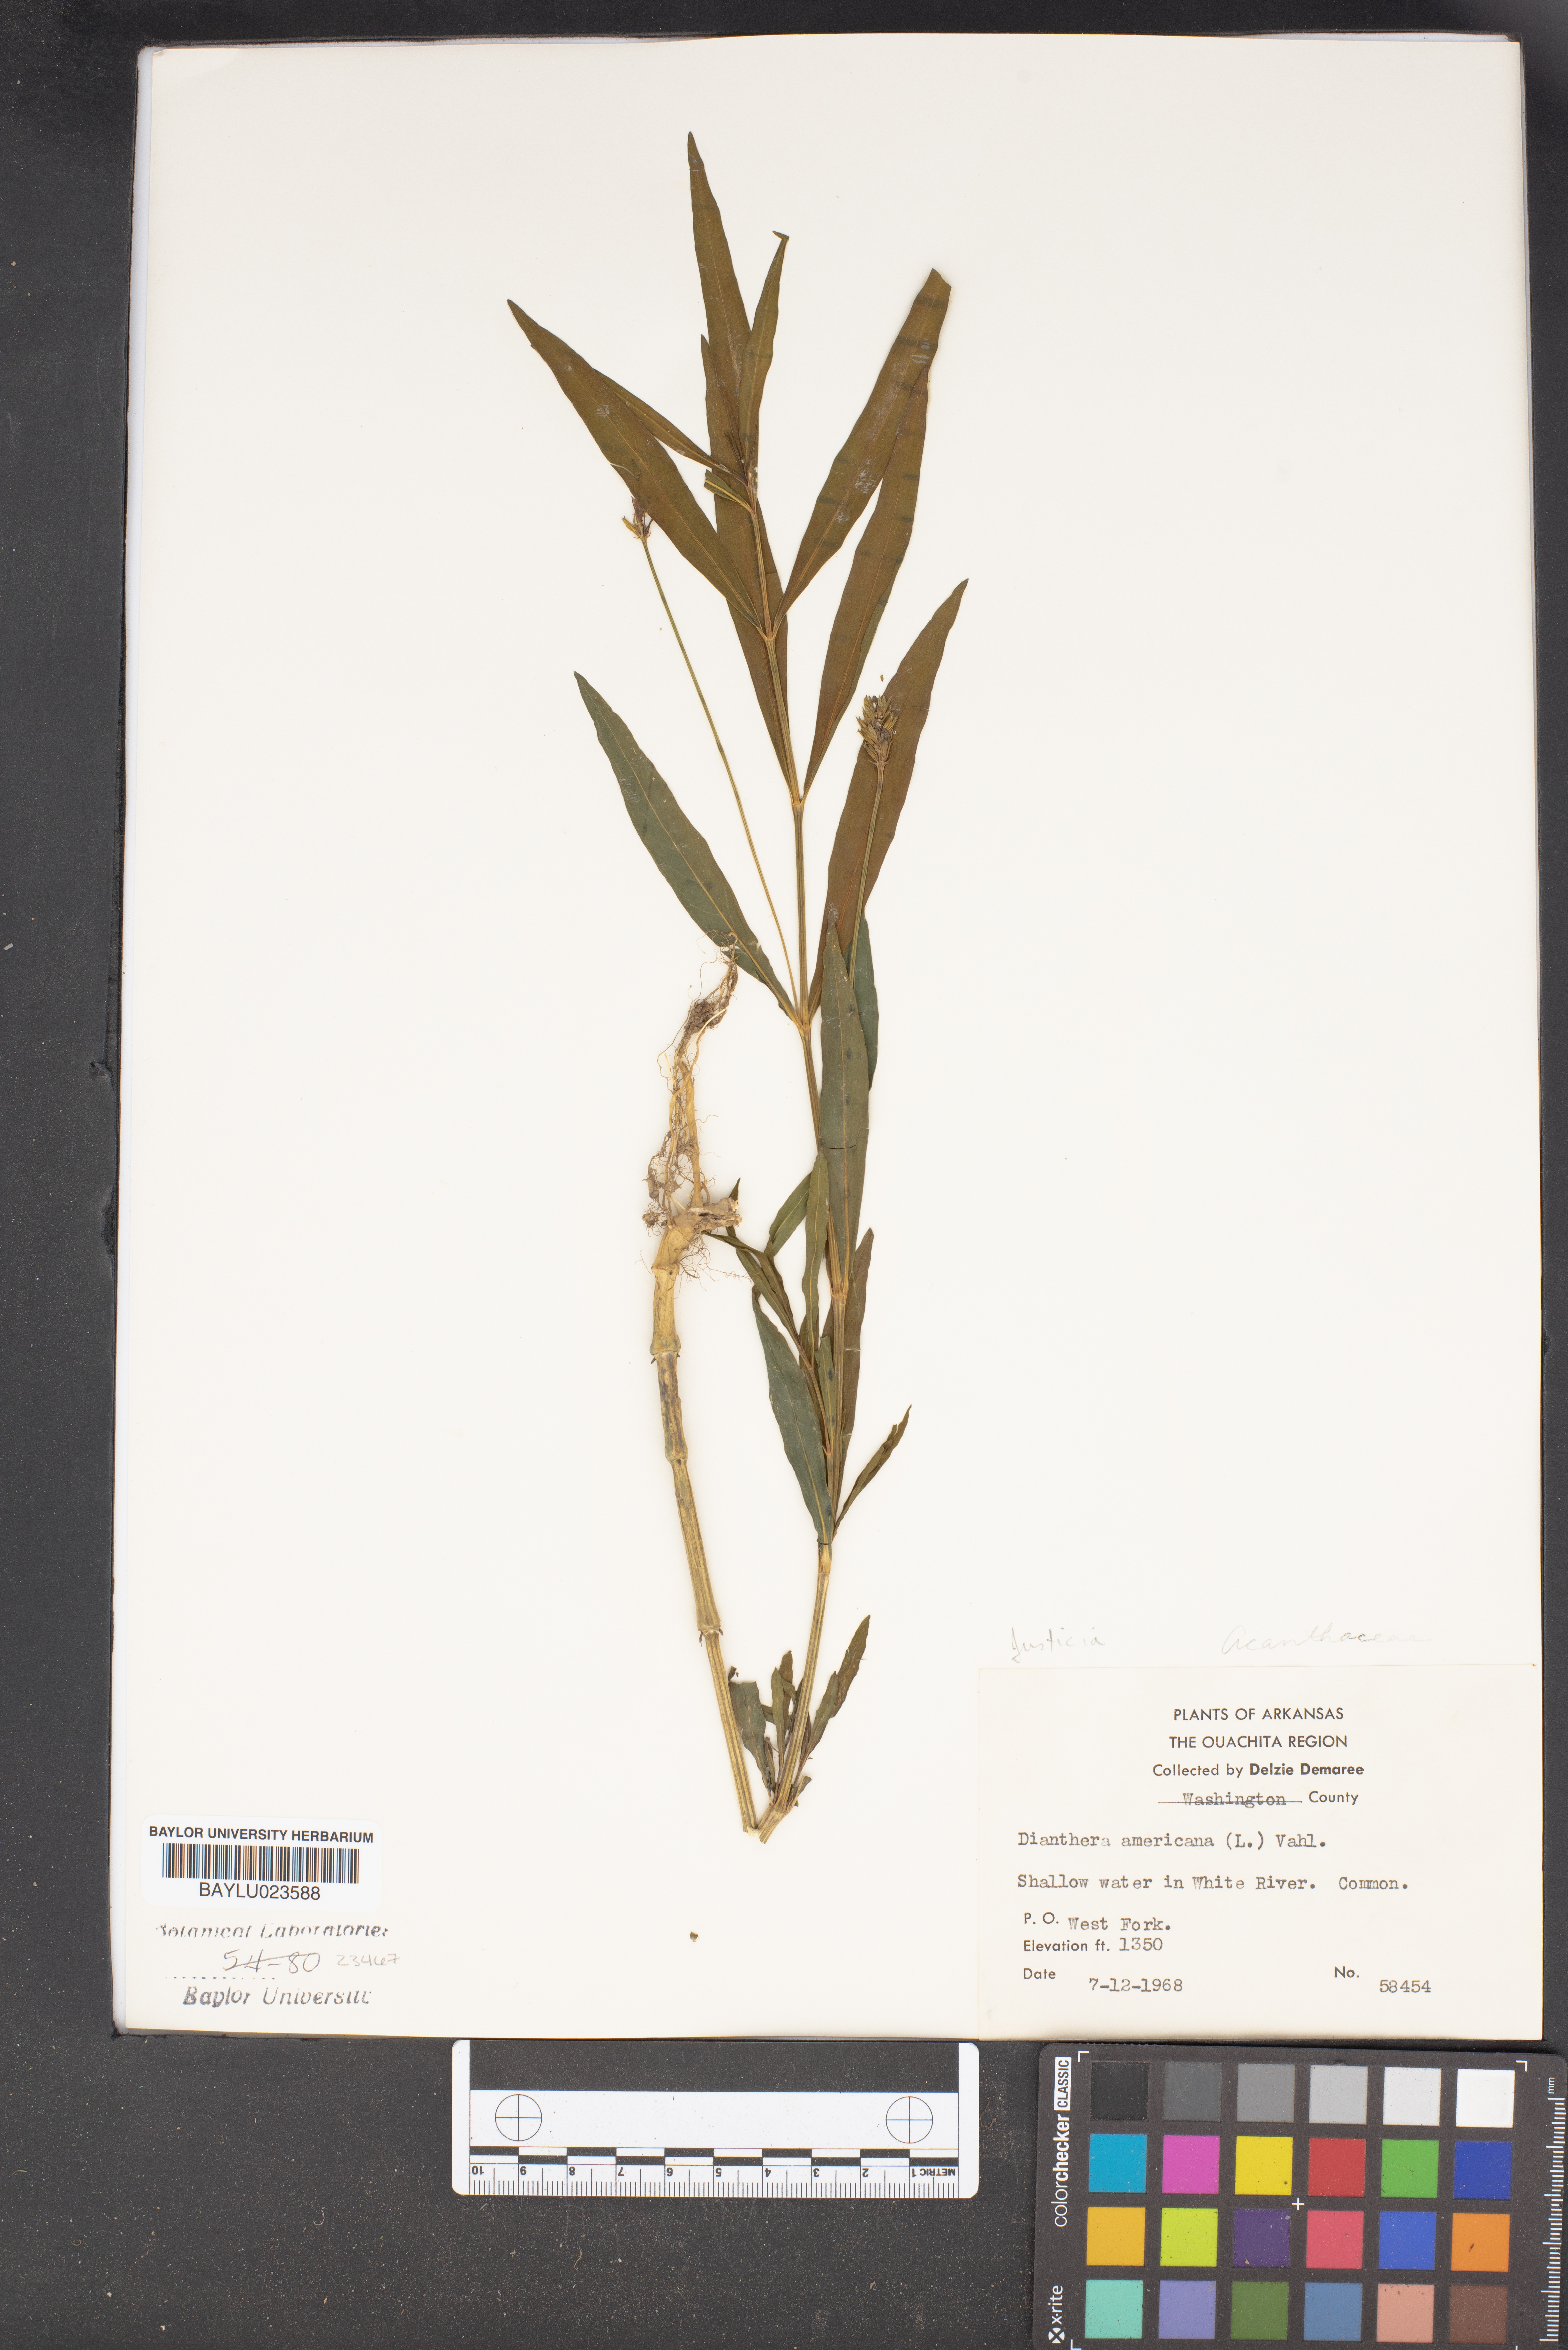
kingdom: Plantae
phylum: Tracheophyta
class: Magnoliopsida
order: Lamiales
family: Acanthaceae
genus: Rostellularia
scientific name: Rostellularia procumbens
